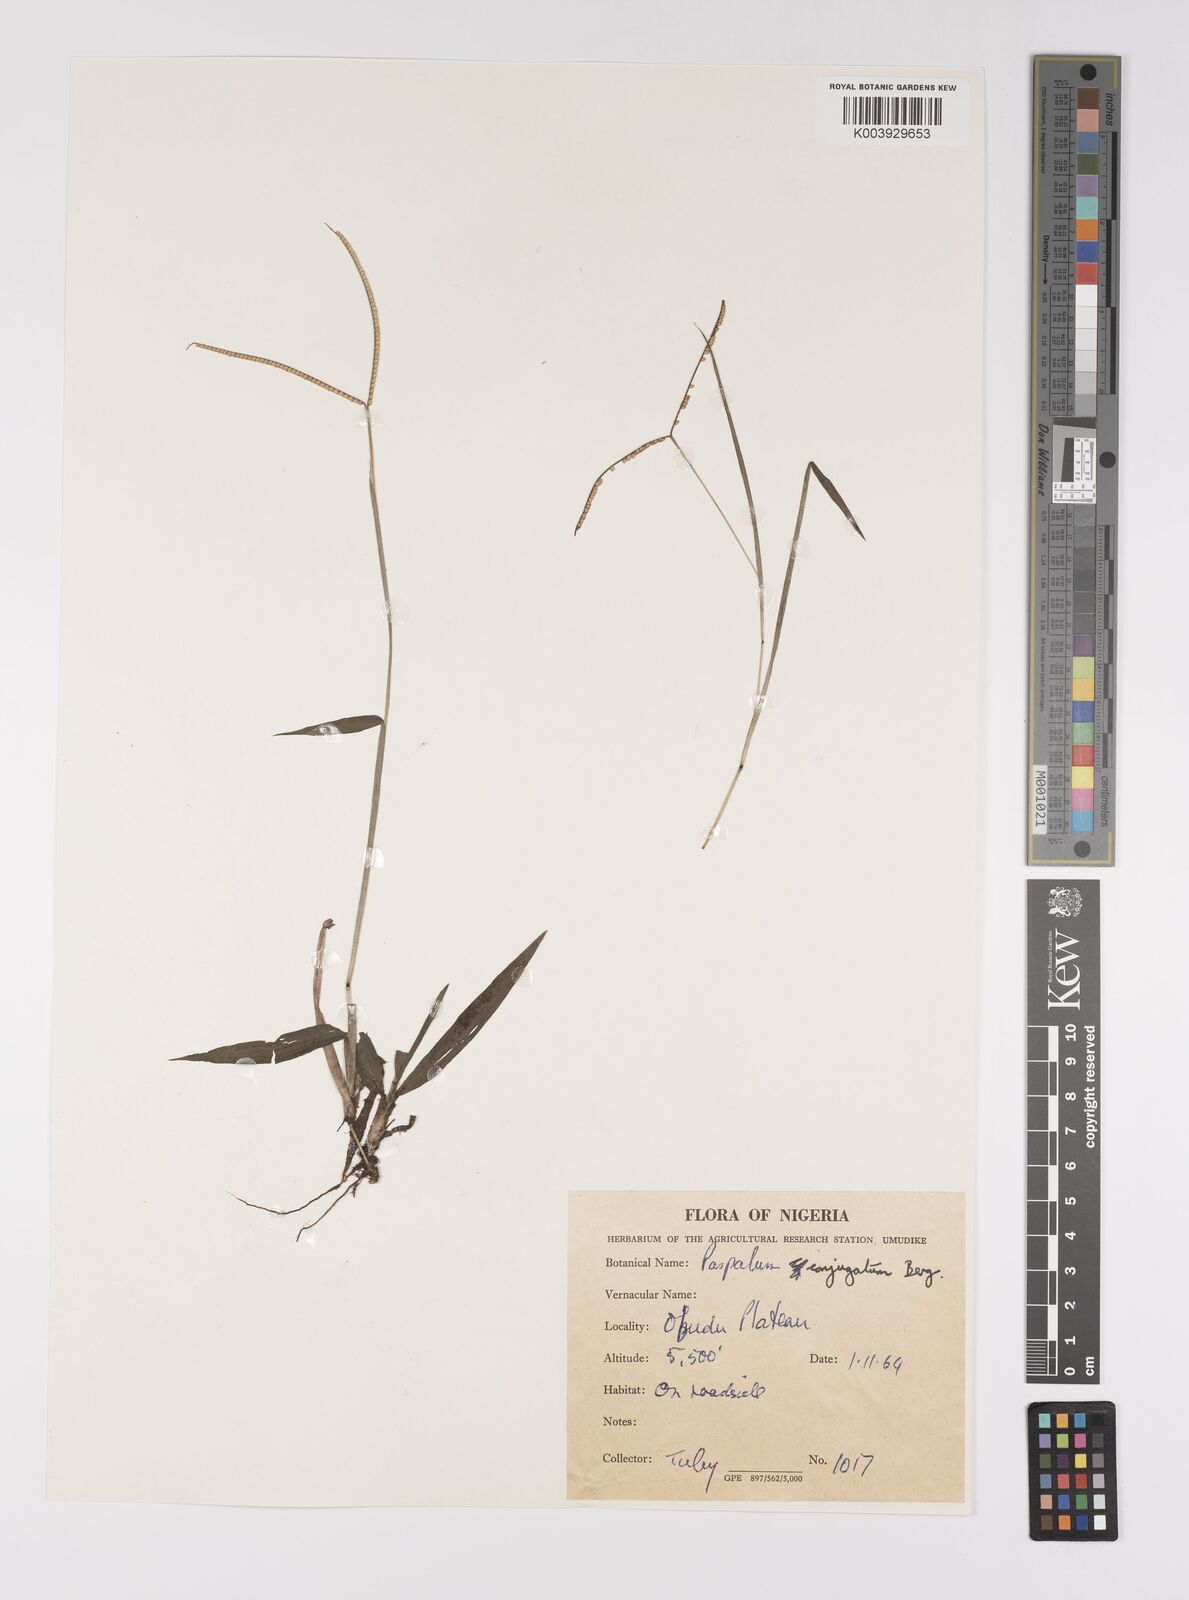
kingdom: Plantae
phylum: Tracheophyta
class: Liliopsida
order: Poales
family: Poaceae
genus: Paspalum
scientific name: Paspalum conjugatum
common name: Hilograss
